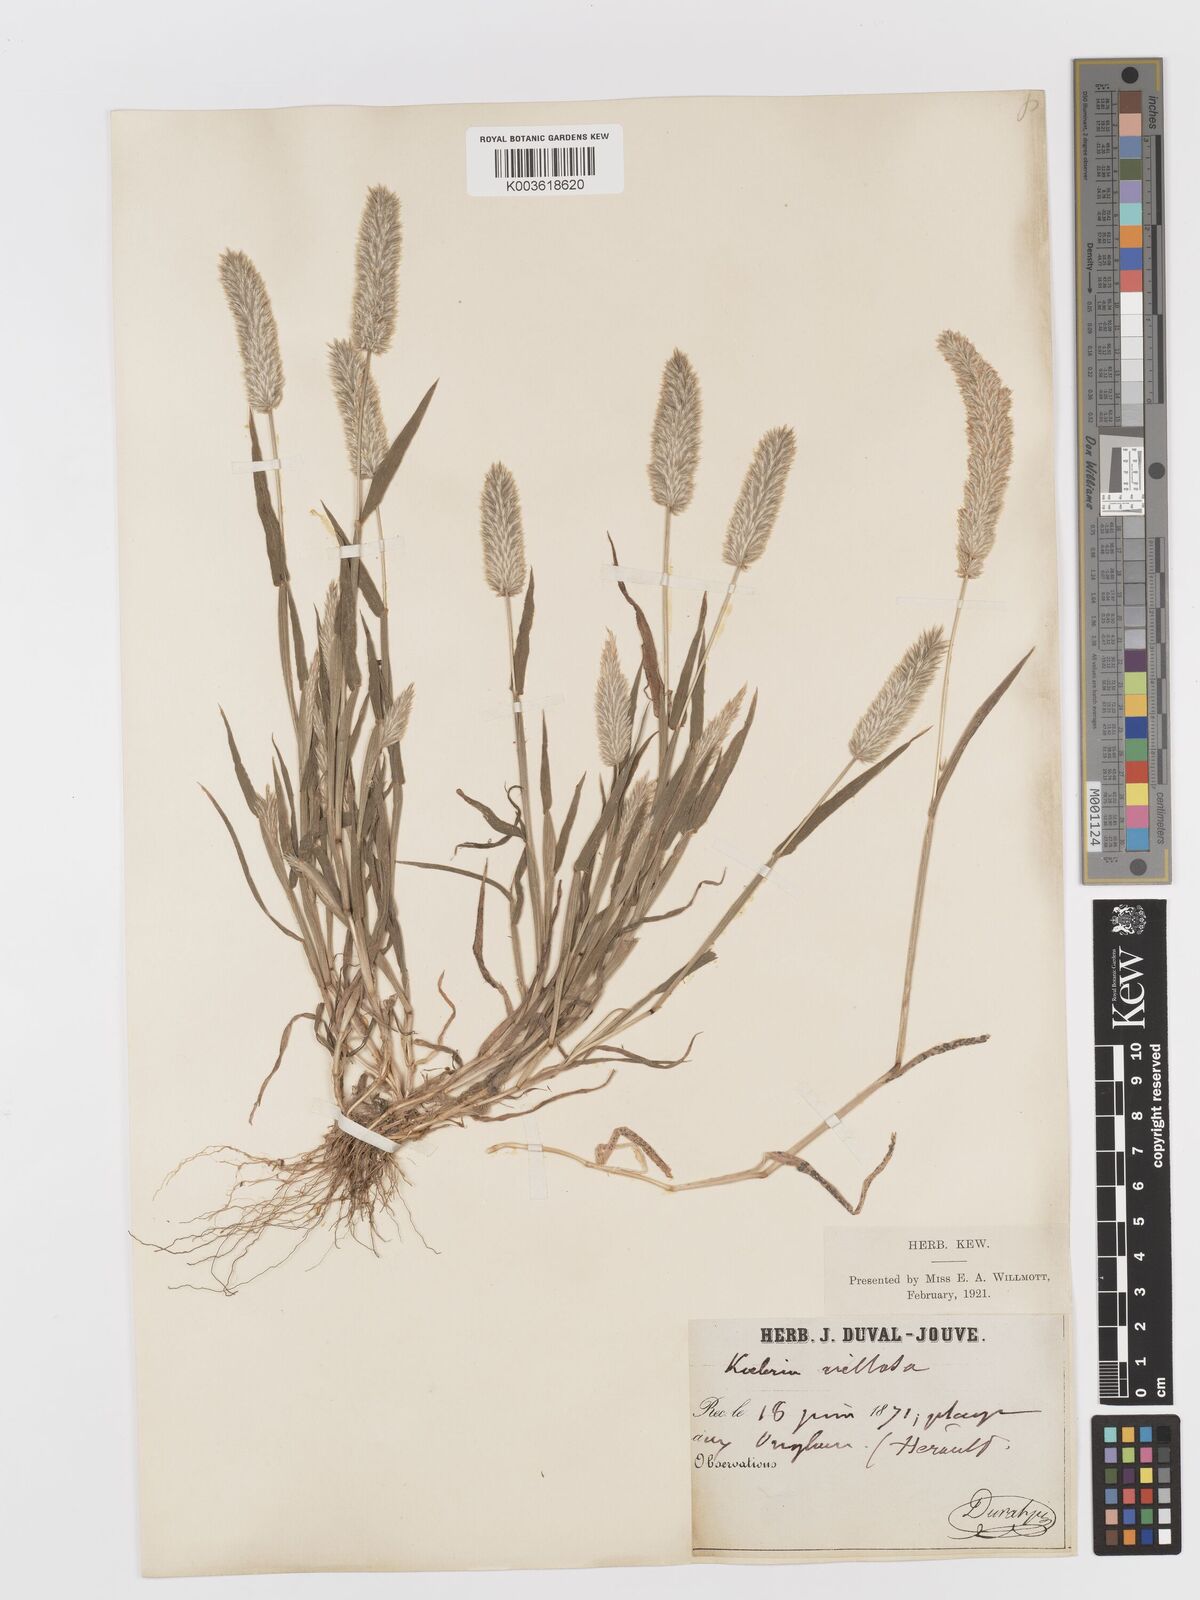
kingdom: Plantae
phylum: Tracheophyta
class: Liliopsida
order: Poales
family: Poaceae
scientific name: Poaceae
